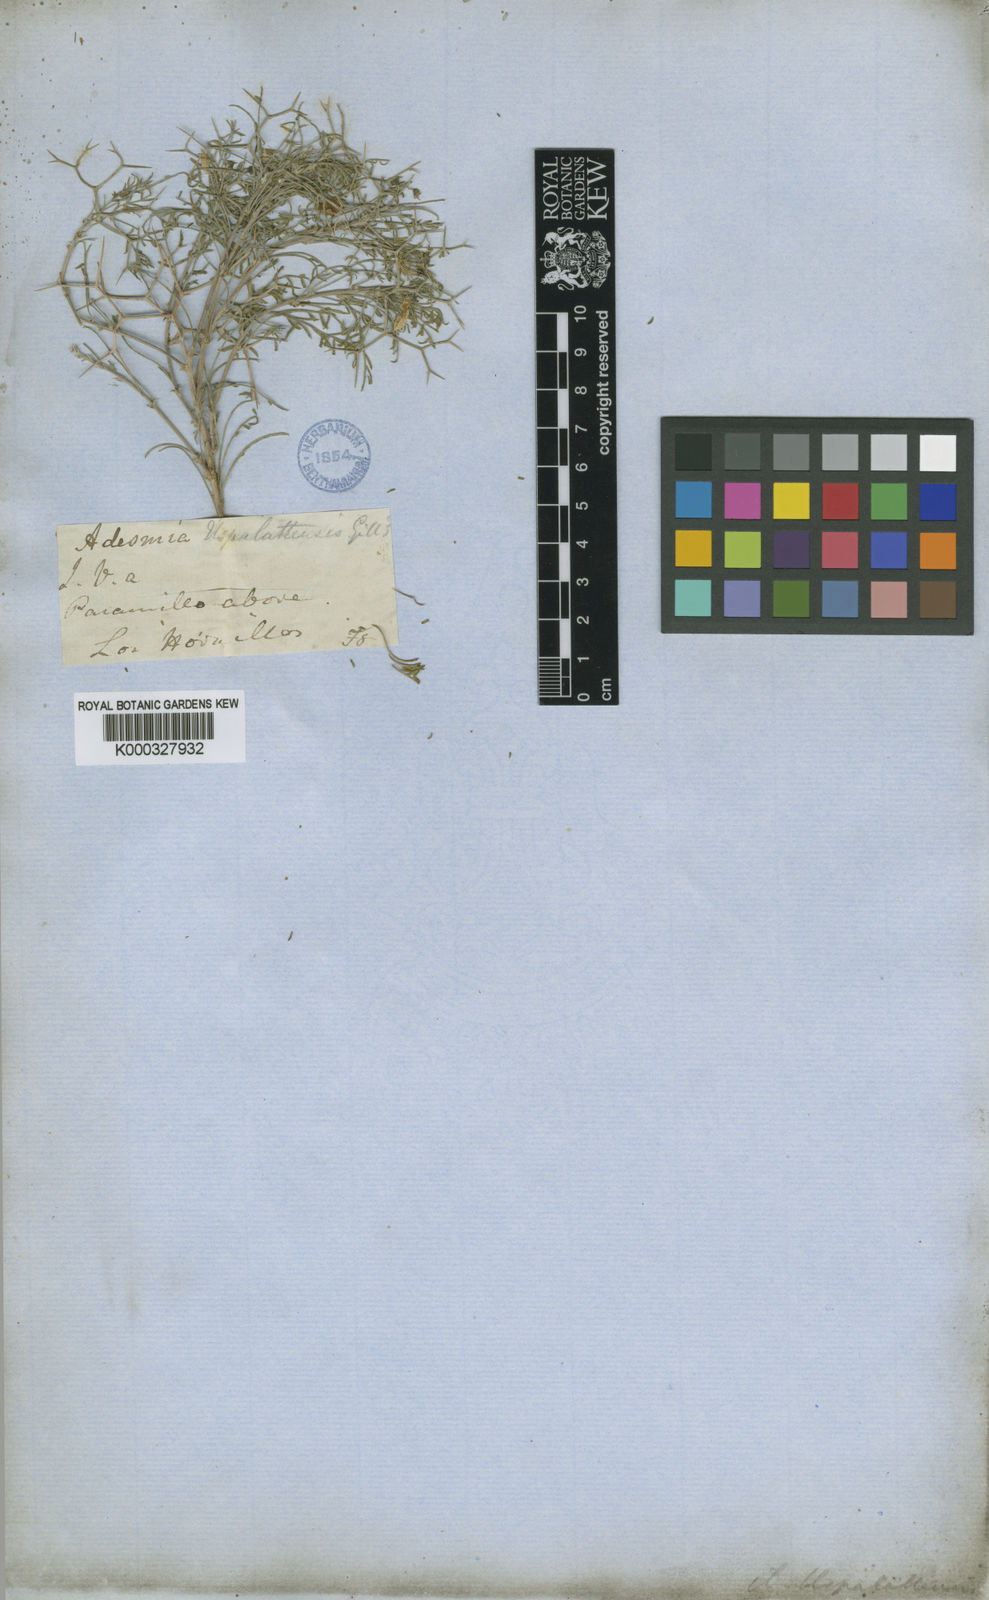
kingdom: Plantae
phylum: Tracheophyta
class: Magnoliopsida
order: Fabales
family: Fabaceae
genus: Adesmia
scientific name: Adesmia uspallatensis
